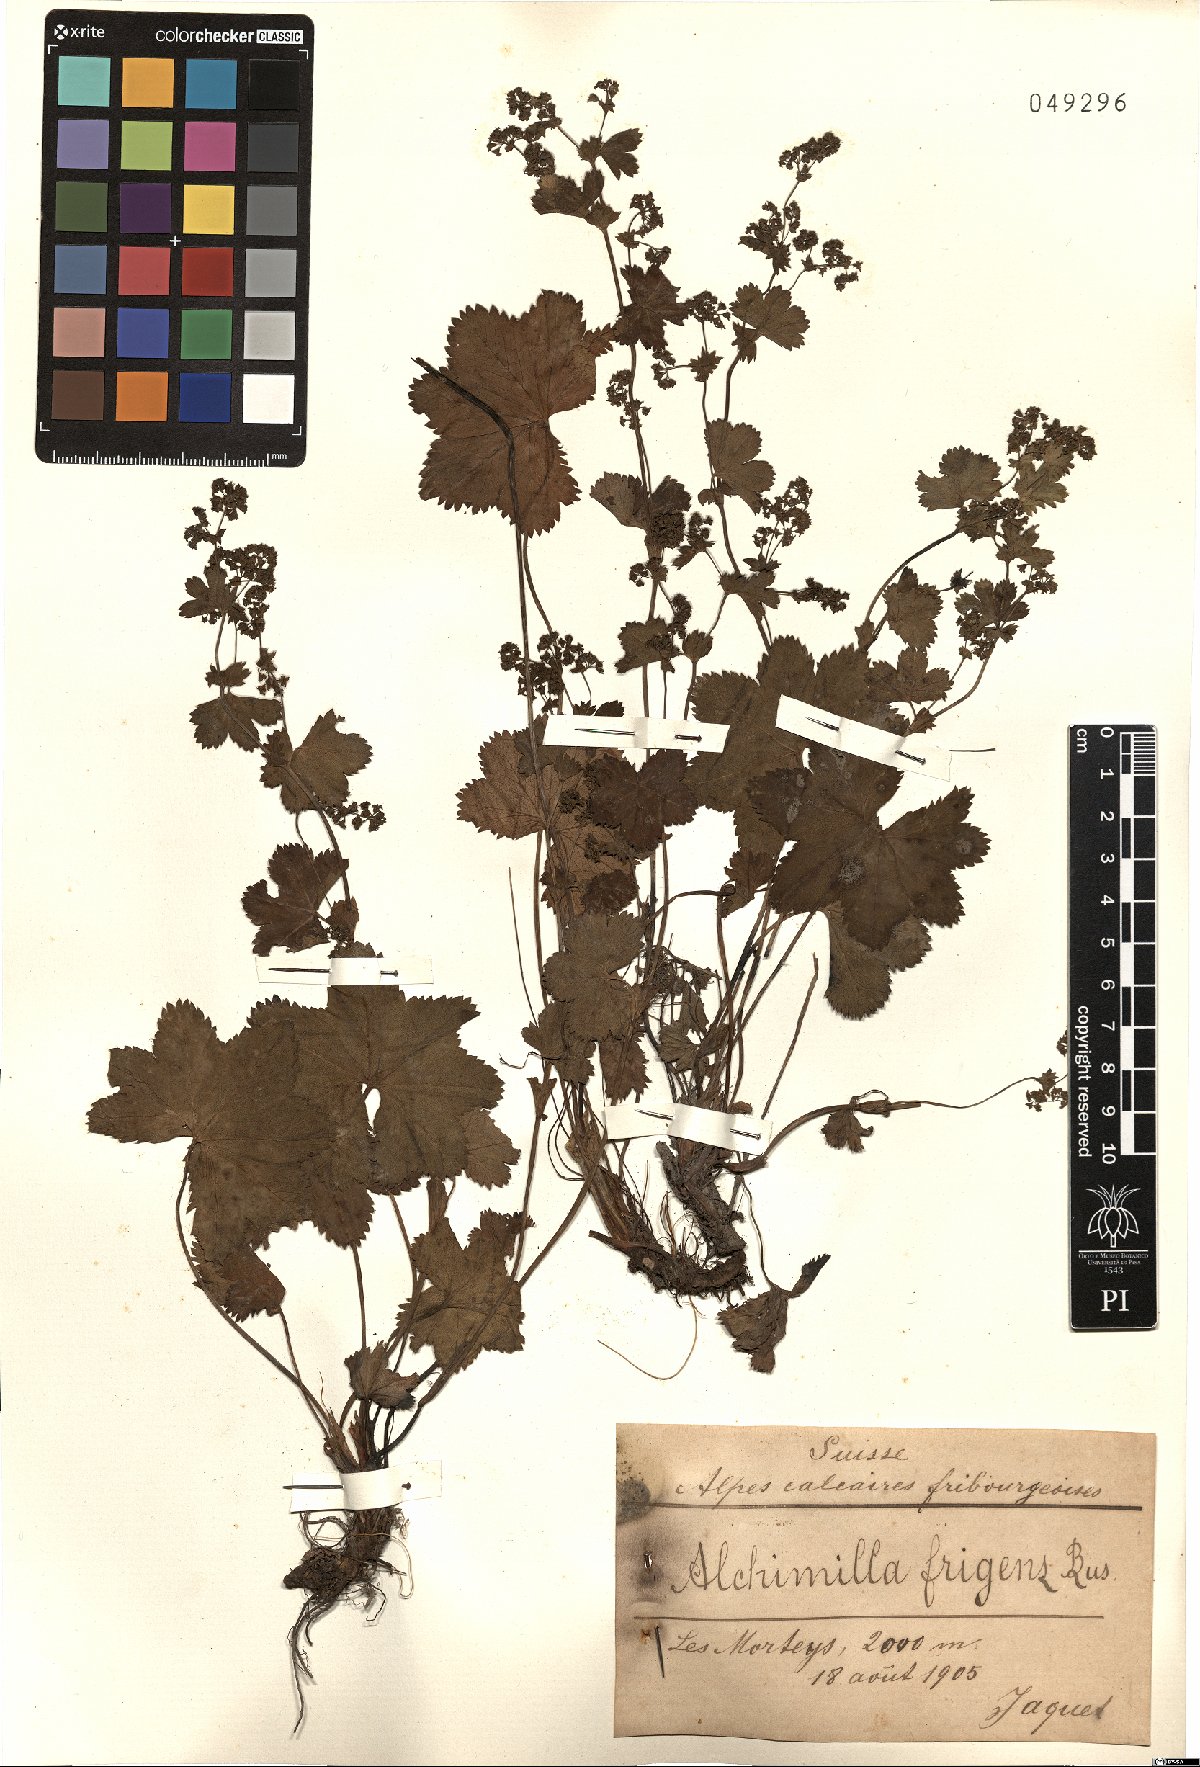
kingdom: Plantae
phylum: Tracheophyta
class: Magnoliopsida
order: Rosales
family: Rosaceae
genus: Alchemilla
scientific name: Alchemilla frigens
